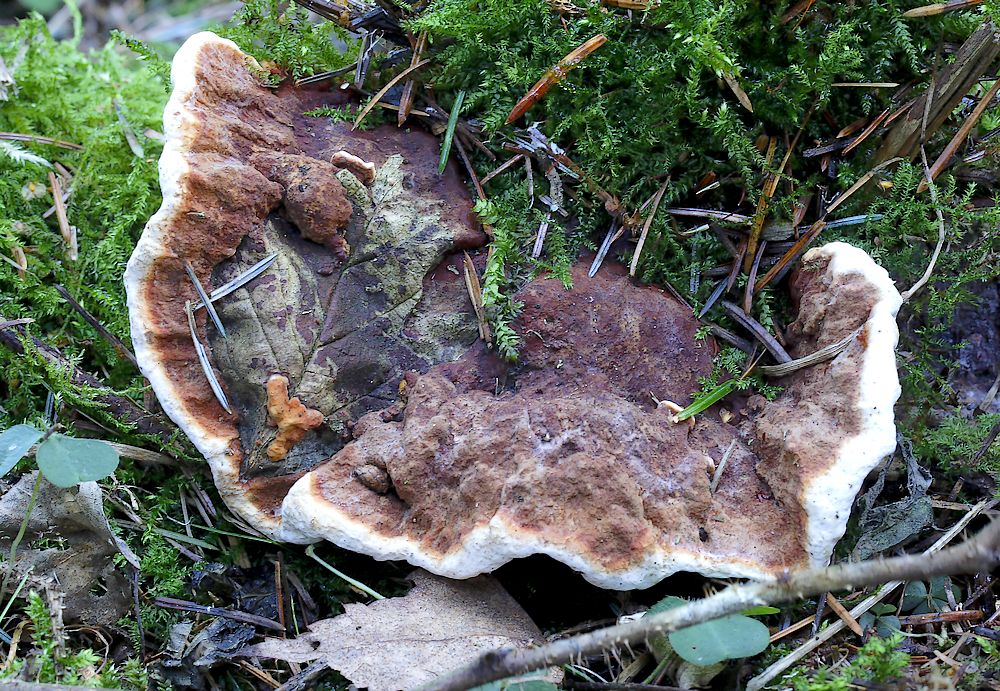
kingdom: Fungi
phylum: Basidiomycota
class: Agaricomycetes
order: Russulales
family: Bondarzewiaceae
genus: Heterobasidion
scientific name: Heterobasidion annosum
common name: almindelig rodfordærver
